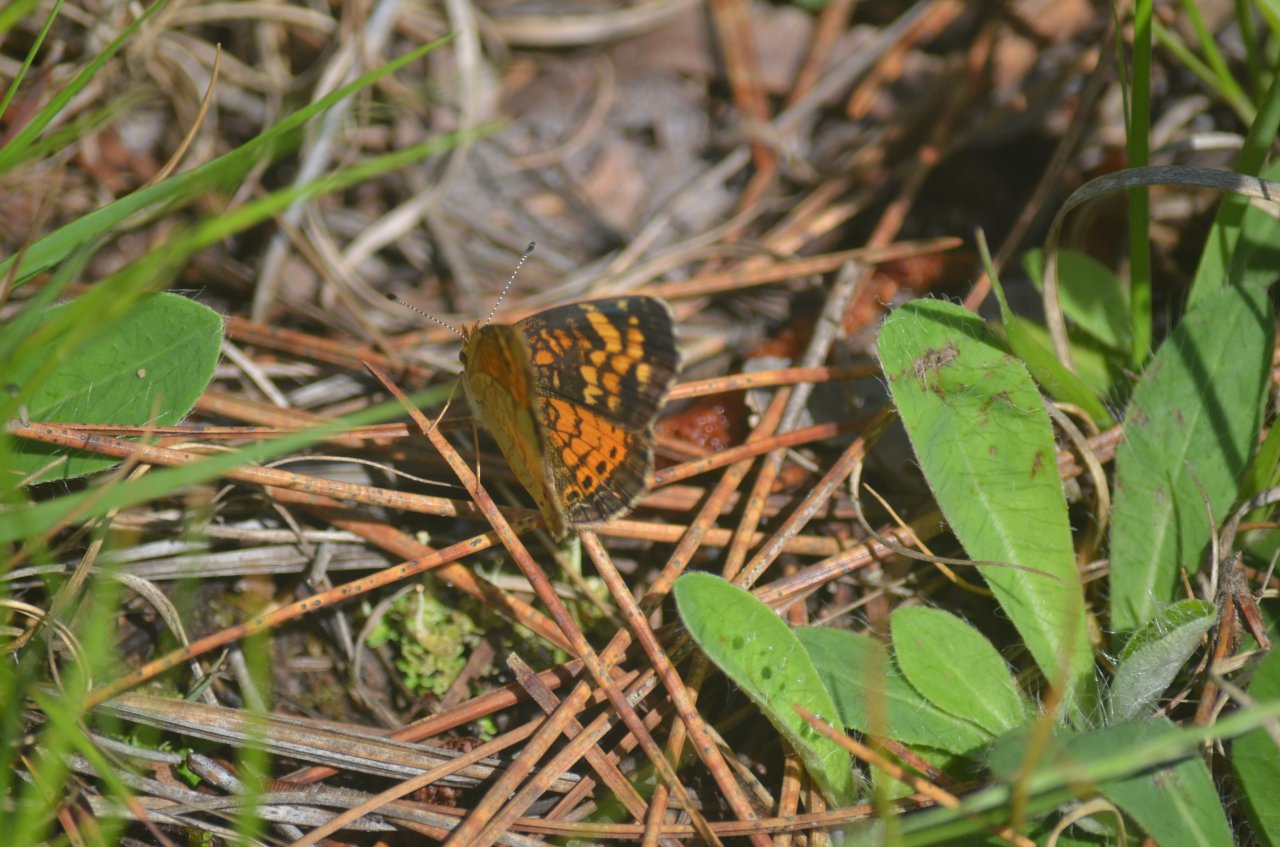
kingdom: Animalia
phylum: Arthropoda
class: Insecta
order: Lepidoptera
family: Nymphalidae
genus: Phyciodes
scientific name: Phyciodes tharos
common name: Northern Crescent
